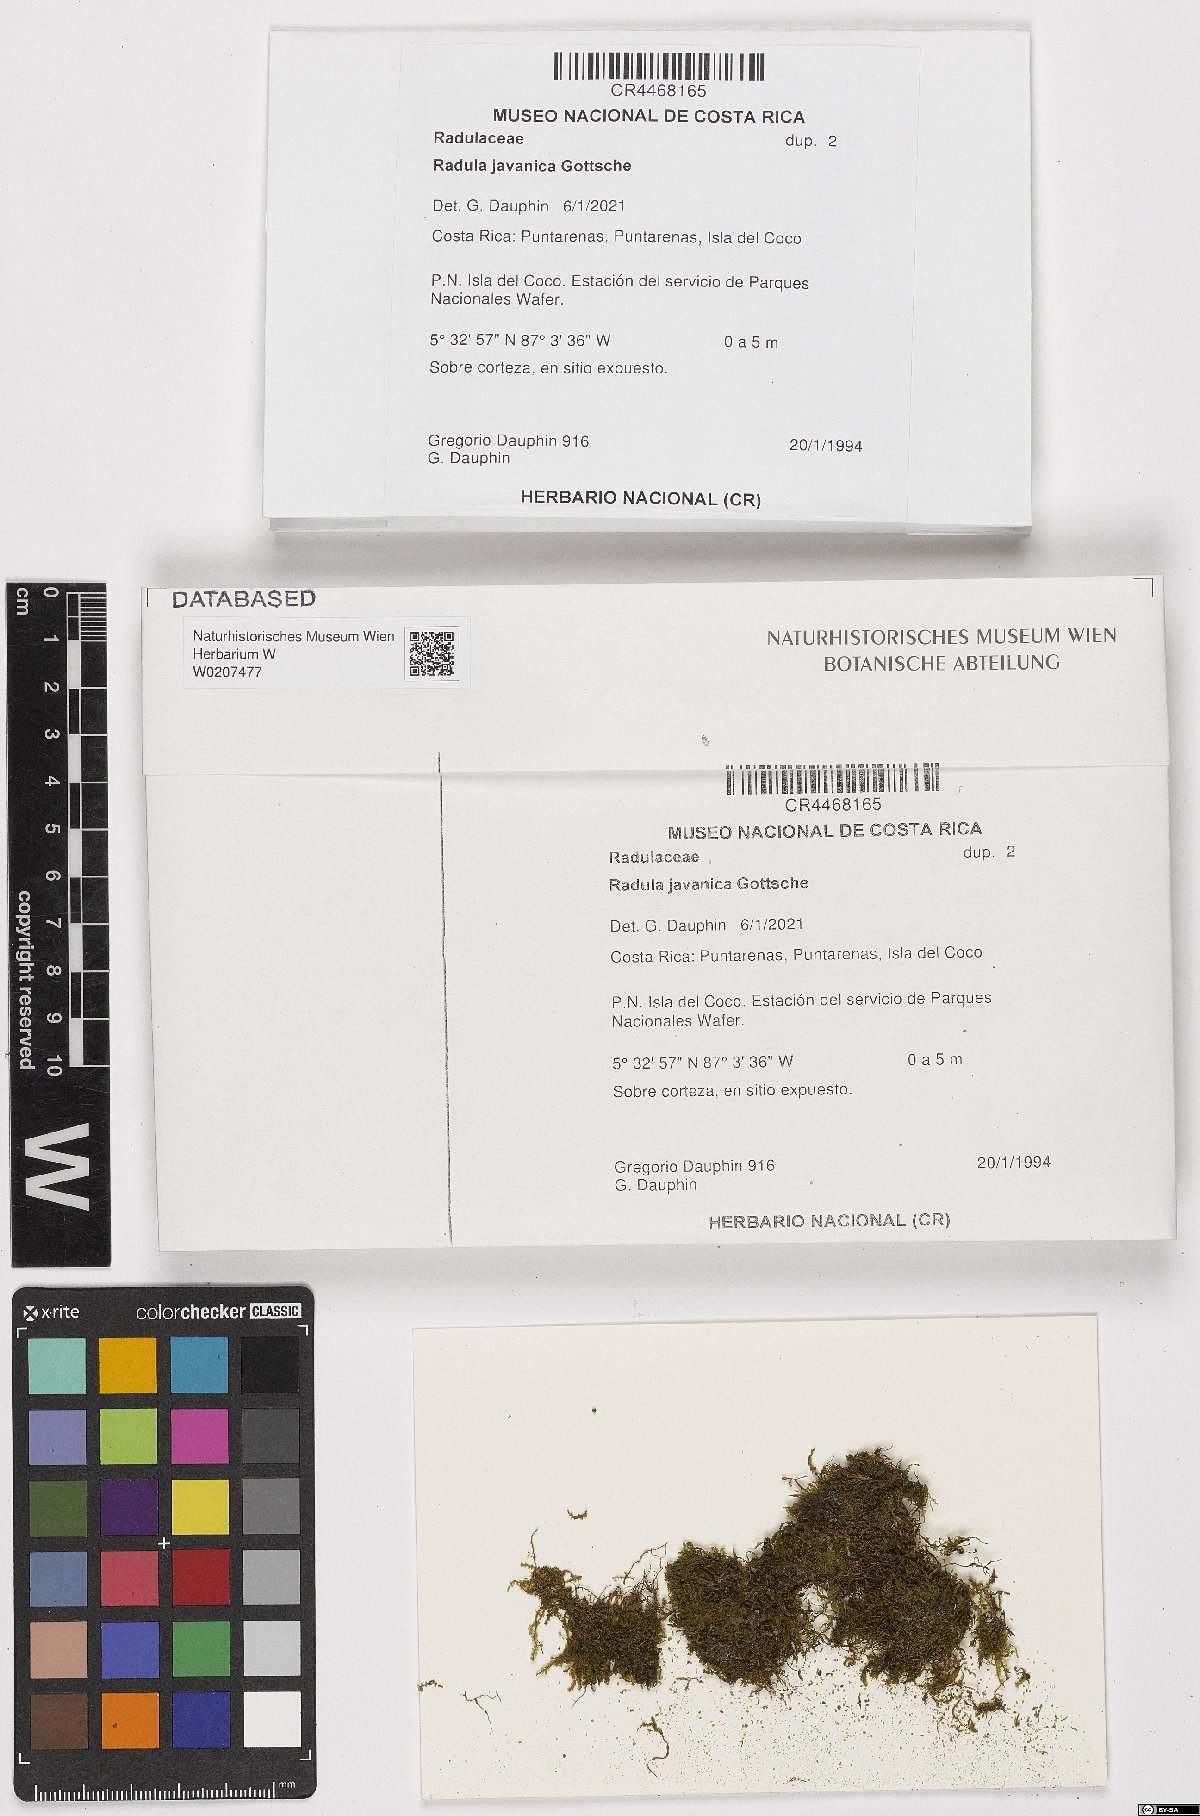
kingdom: Plantae
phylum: Marchantiophyta
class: Jungermanniopsida
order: Porellales
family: Radulaceae
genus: Radula
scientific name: Radula javanica
